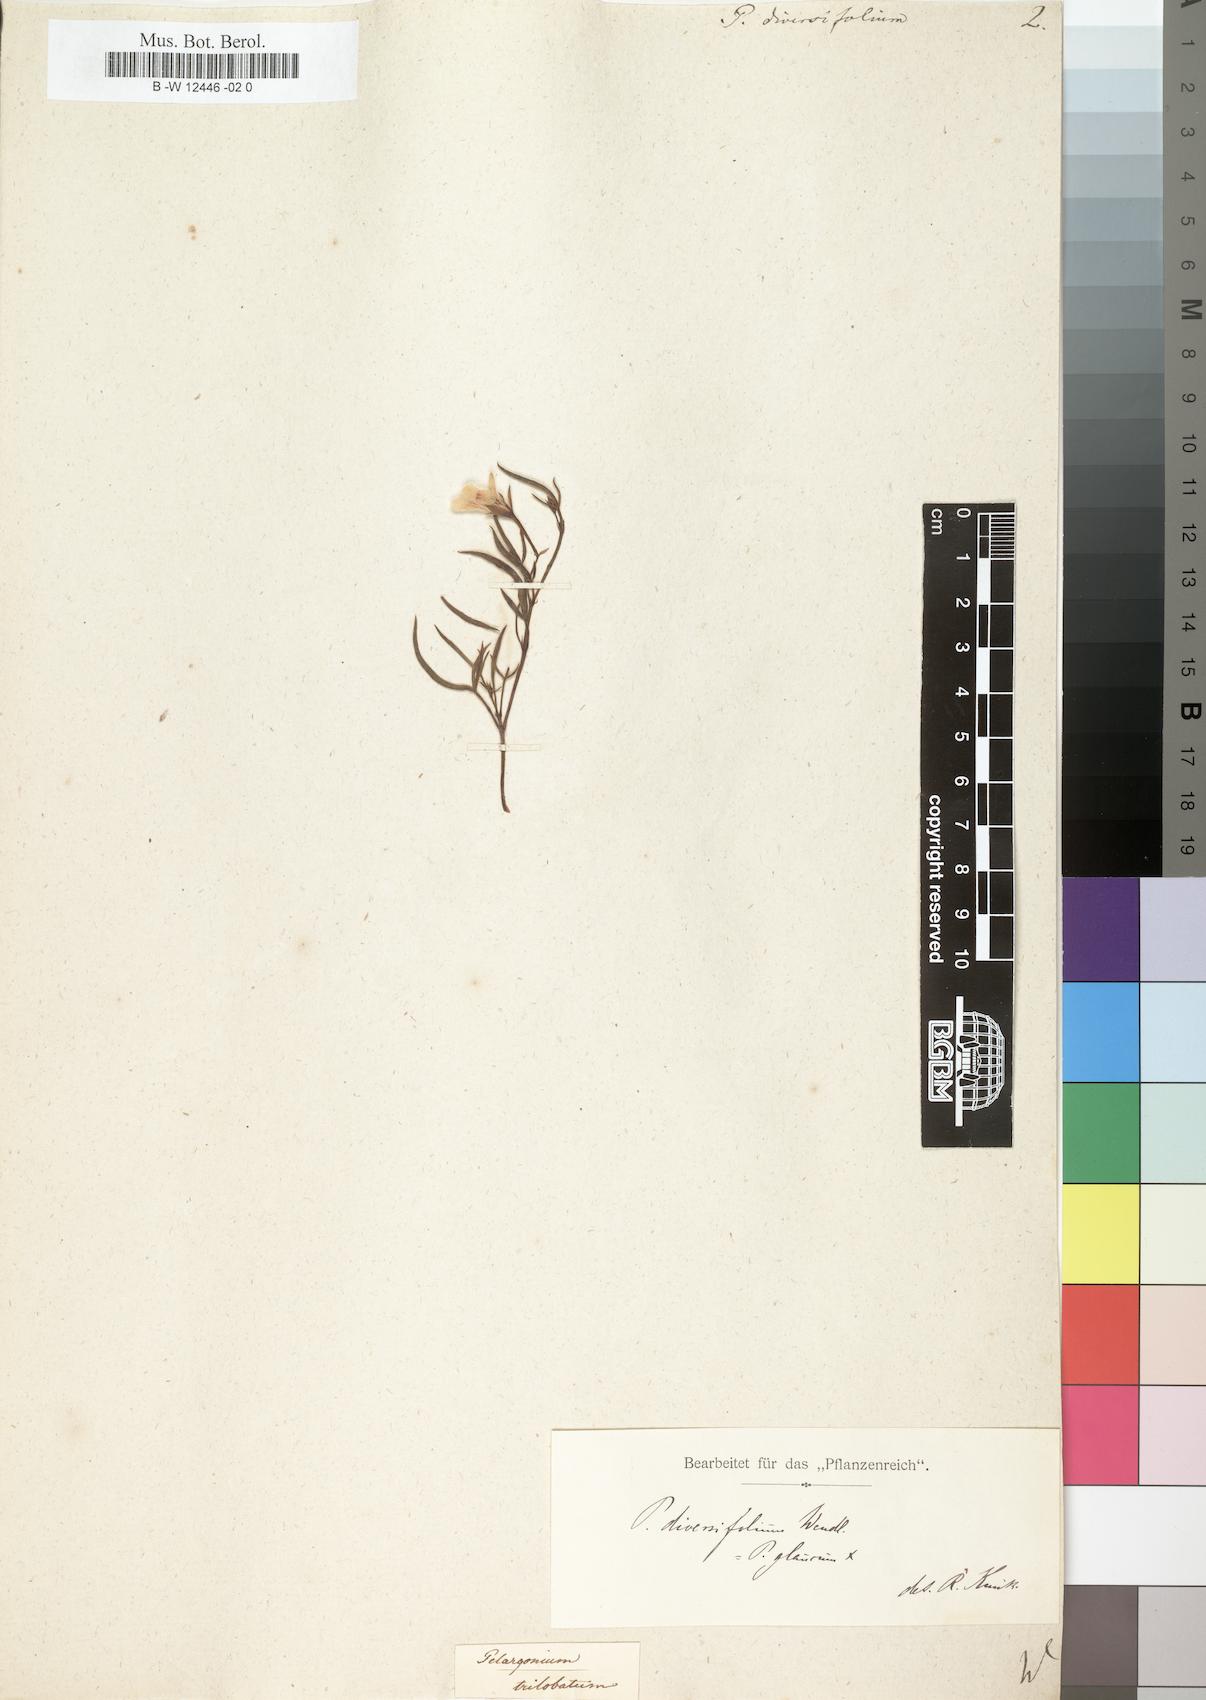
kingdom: Plantae
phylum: Tracheophyta
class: Magnoliopsida
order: Geraniales
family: Geraniaceae
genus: Pelargonium
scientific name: Pelargonium laevigatum
